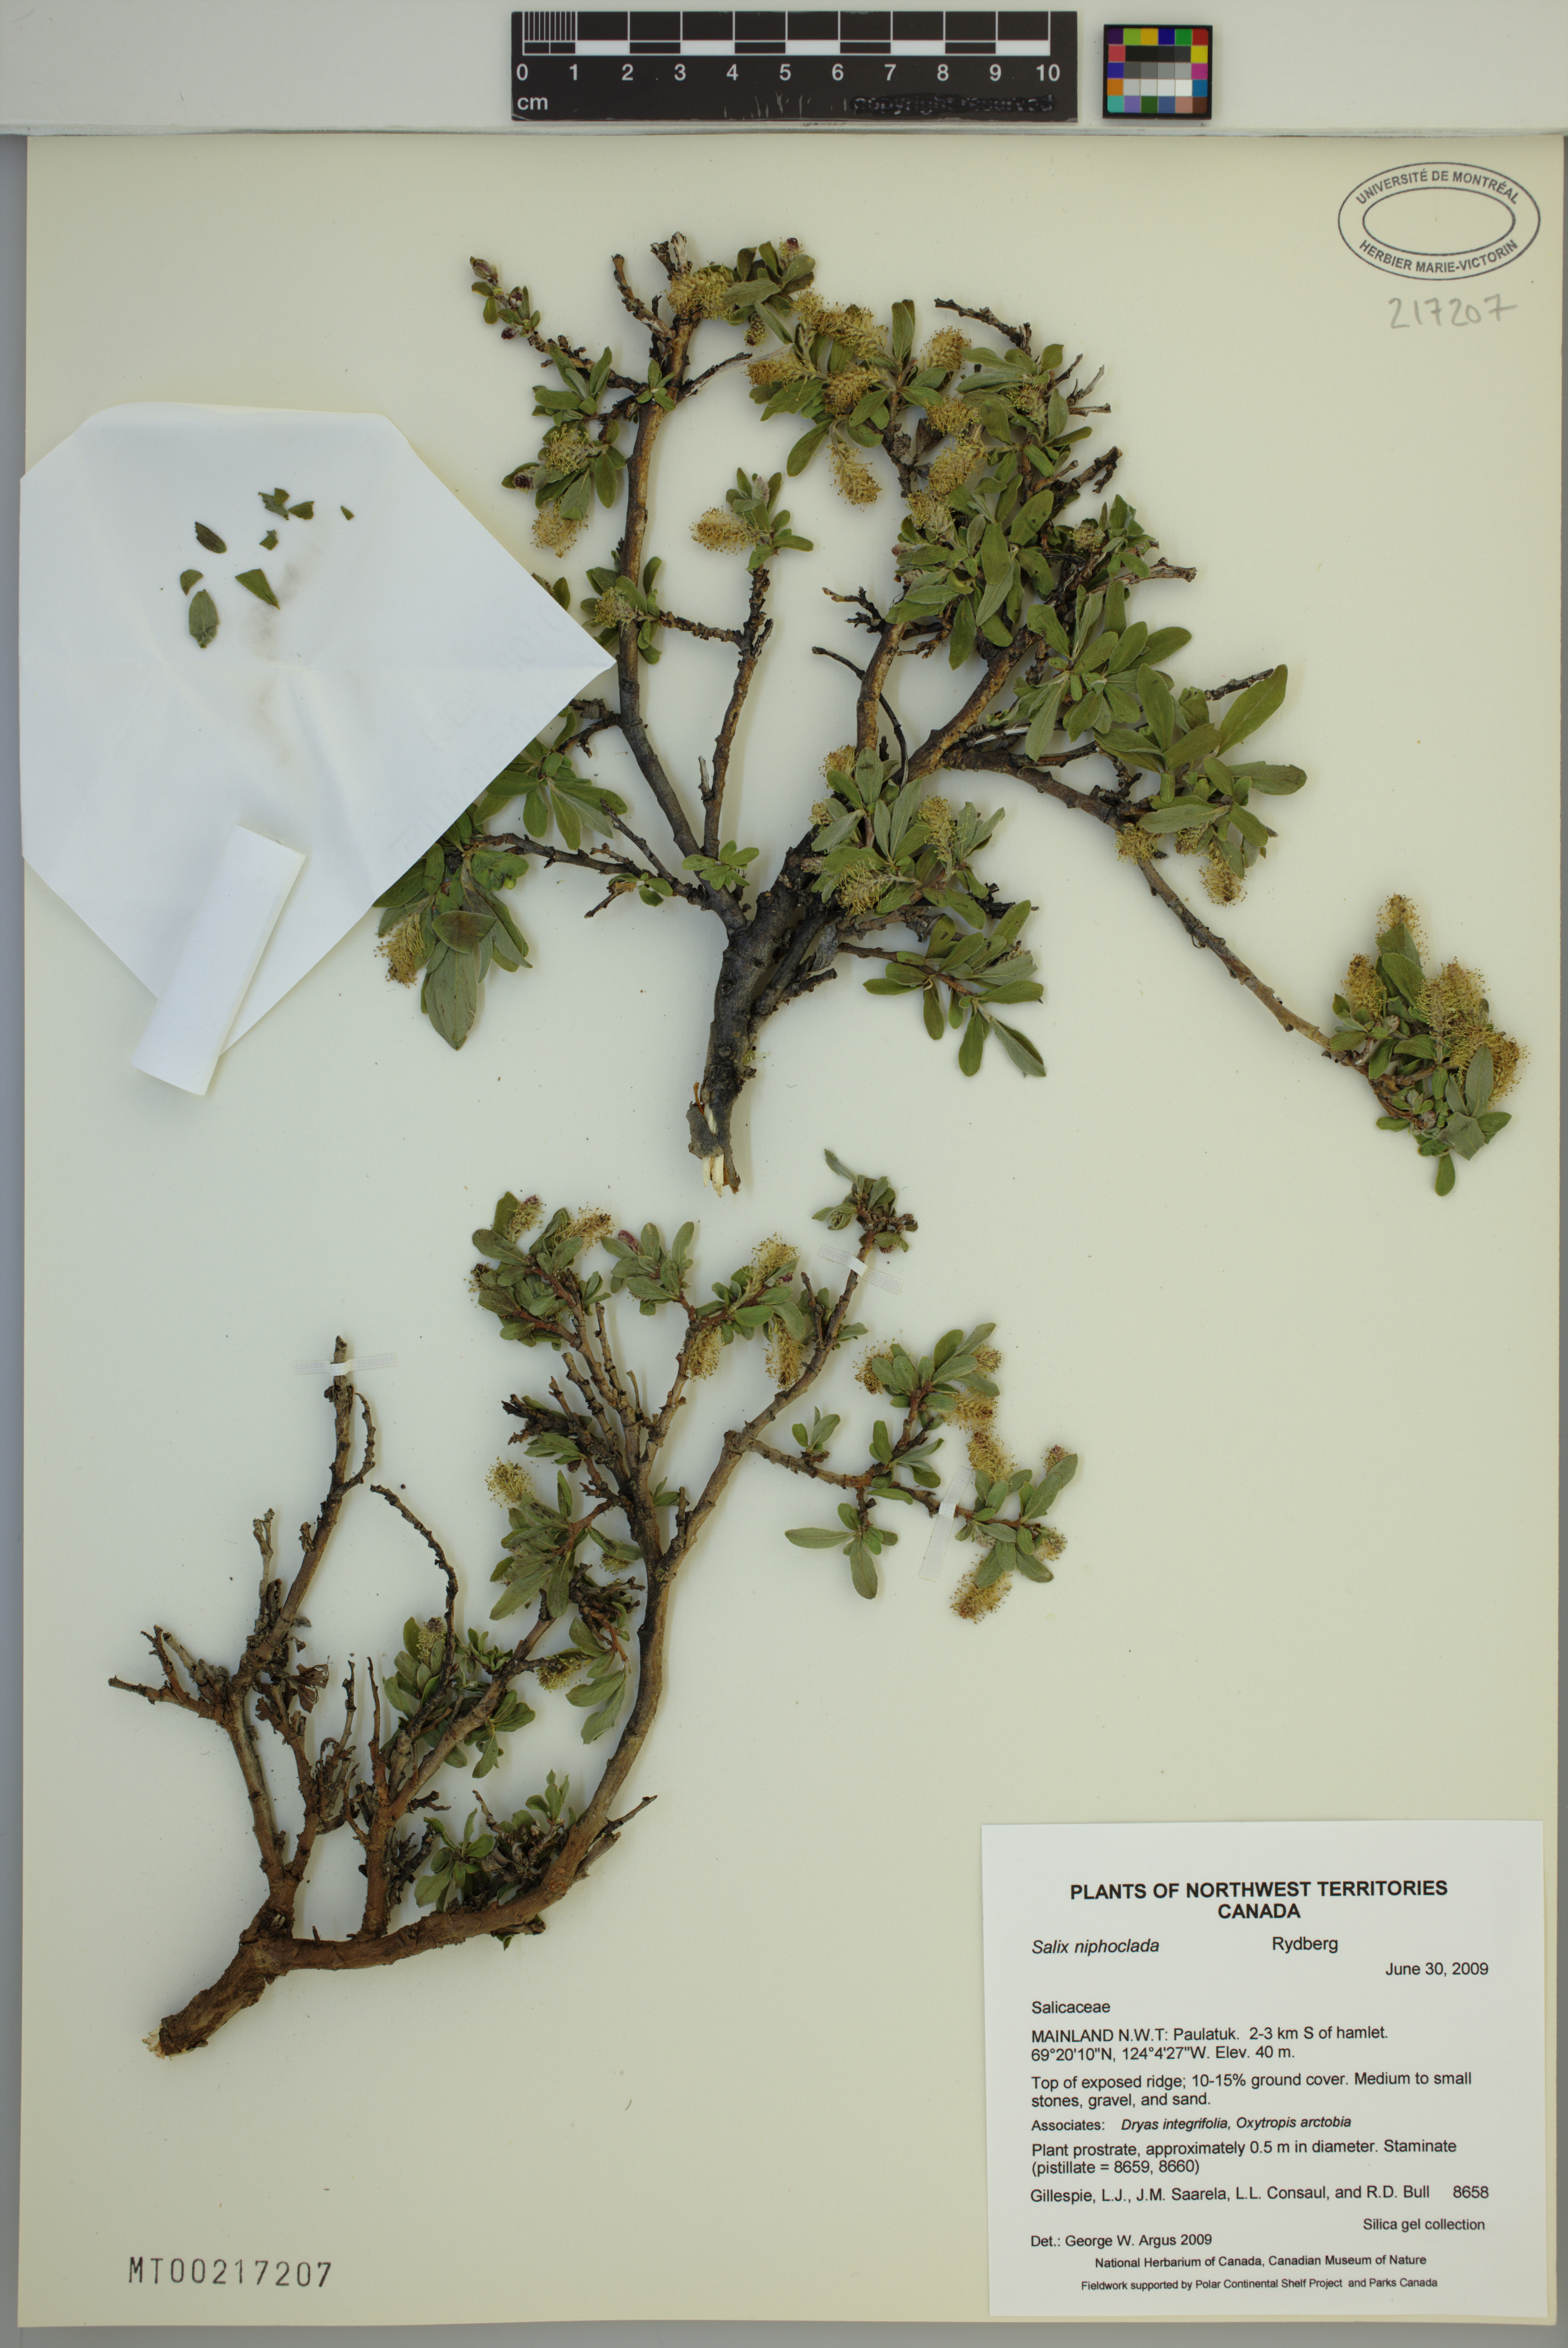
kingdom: Plantae
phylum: Tracheophyta
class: Magnoliopsida
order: Malpighiales
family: Salicaceae
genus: Salix
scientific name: Salix niphoclada
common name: Barren-ground willow
